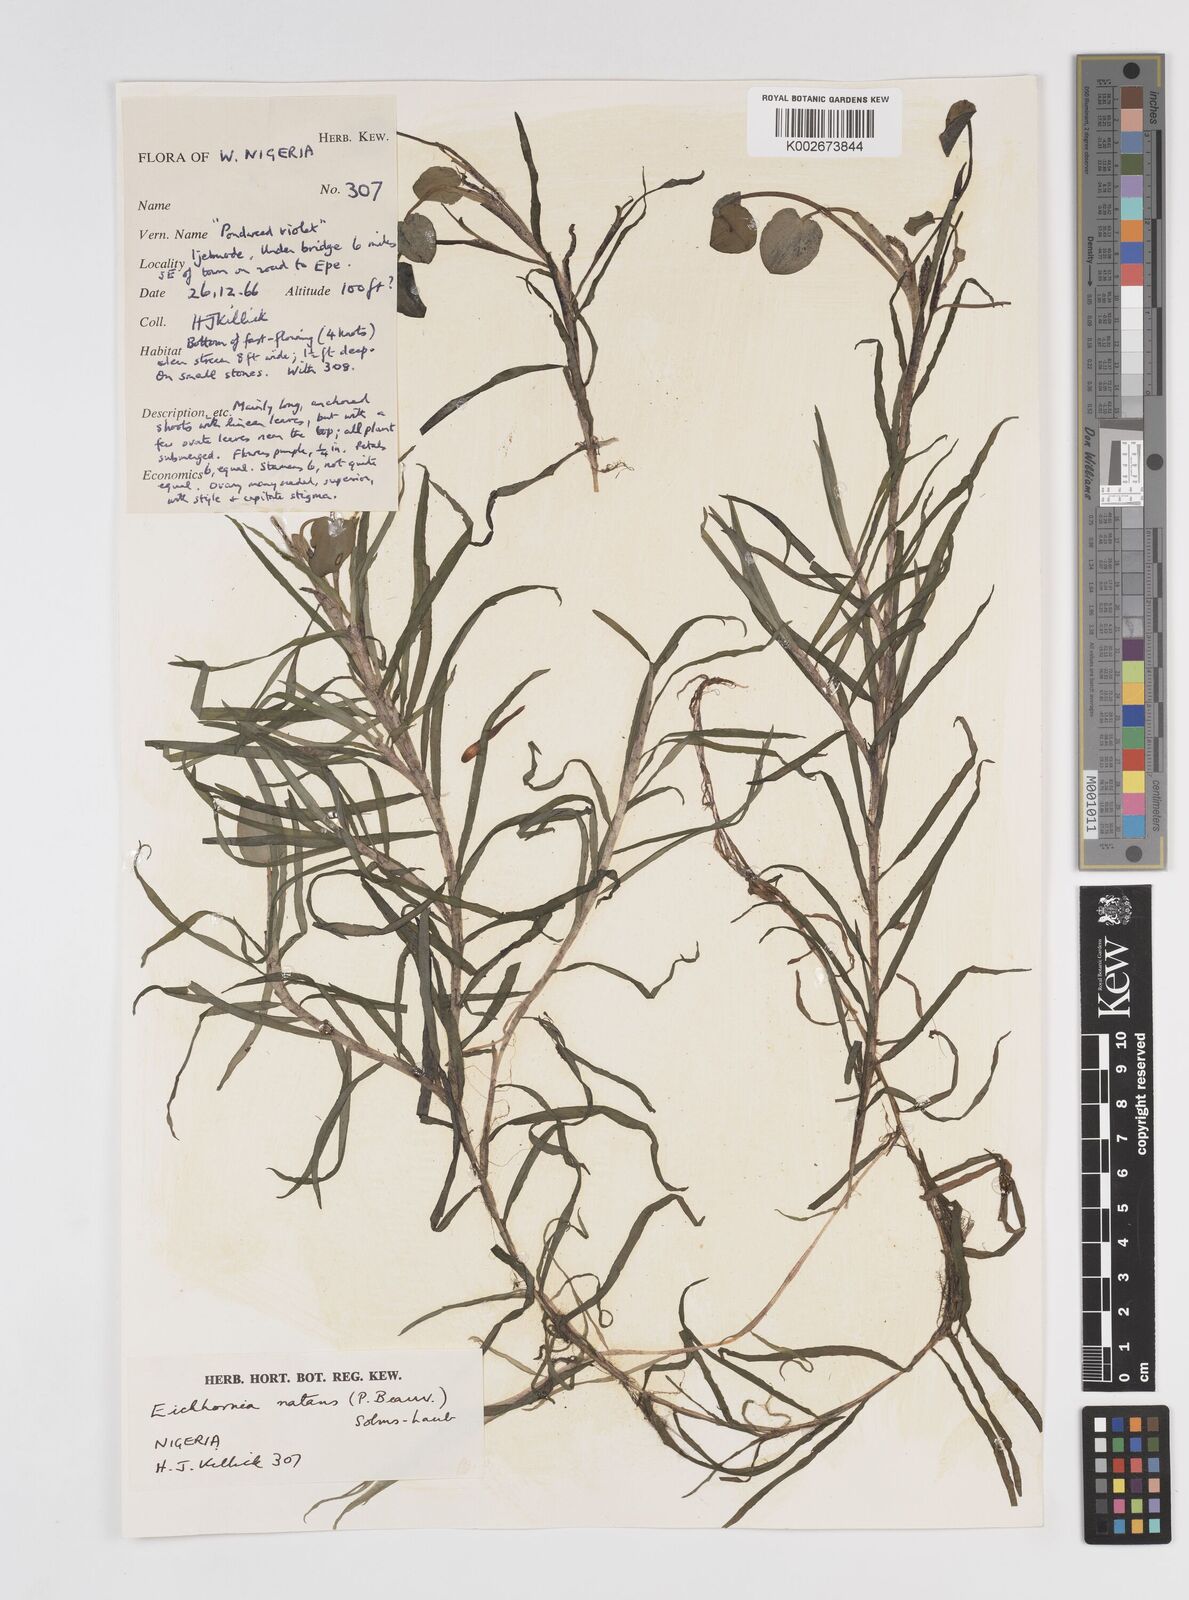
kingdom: Plantae
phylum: Tracheophyta
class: Liliopsida
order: Commelinales
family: Pontederiaceae
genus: Pontederia
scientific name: Pontederia diversifolia
